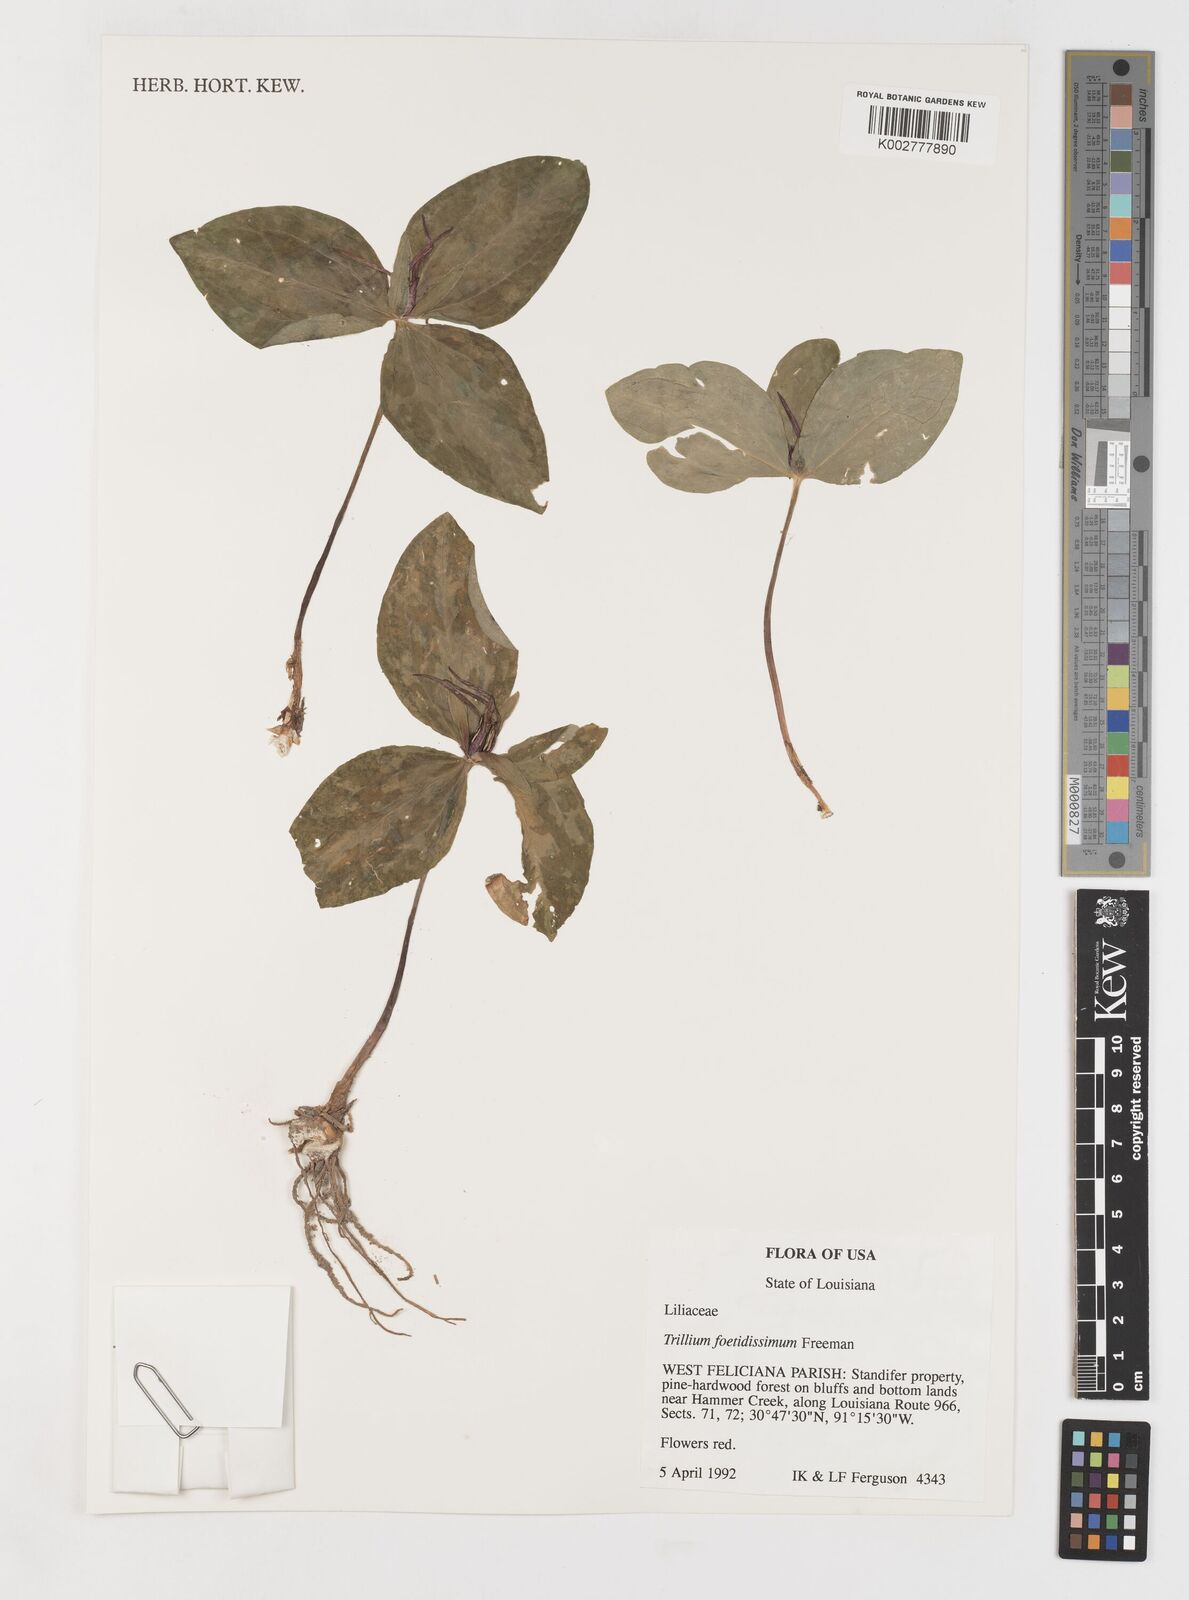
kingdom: Plantae
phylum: Tracheophyta
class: Liliopsida
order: Liliales
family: Melanthiaceae
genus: Trillium
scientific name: Trillium foetidissimum
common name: Mississippi river trillium
